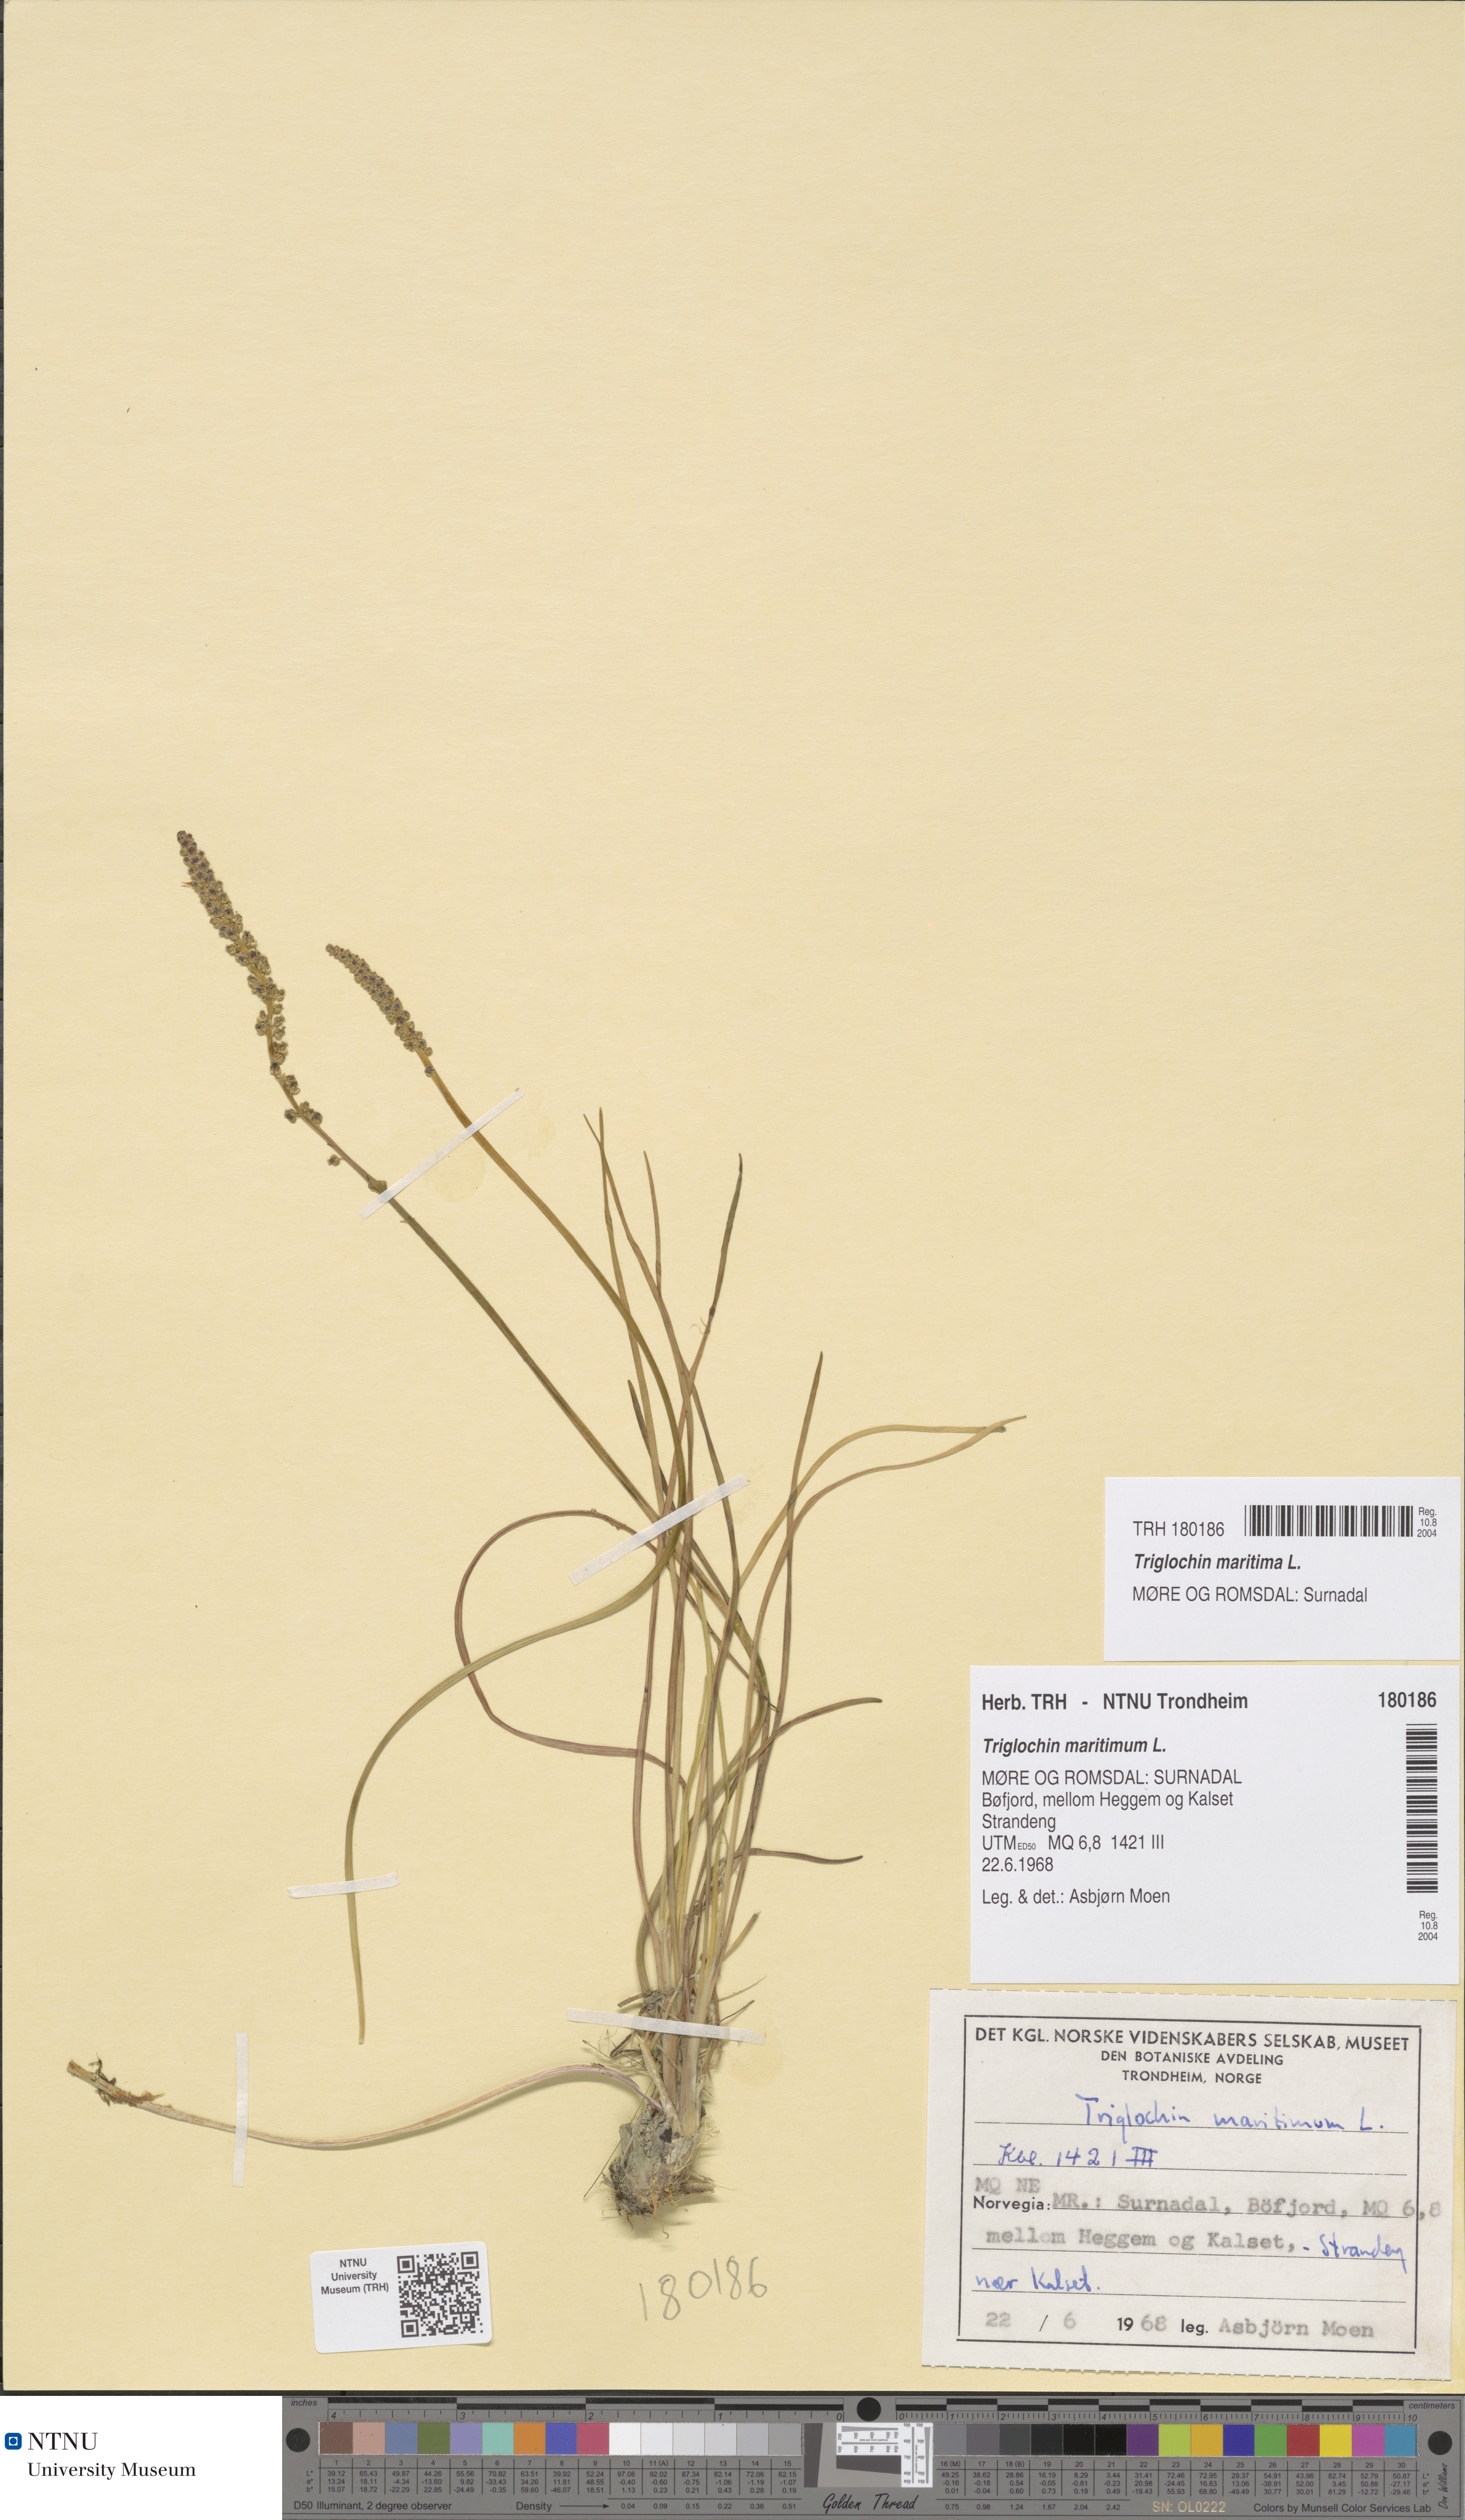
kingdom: Plantae
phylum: Tracheophyta
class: Liliopsida
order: Alismatales
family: Juncaginaceae
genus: Triglochin
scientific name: Triglochin maritima
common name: Sea arrowgrass
